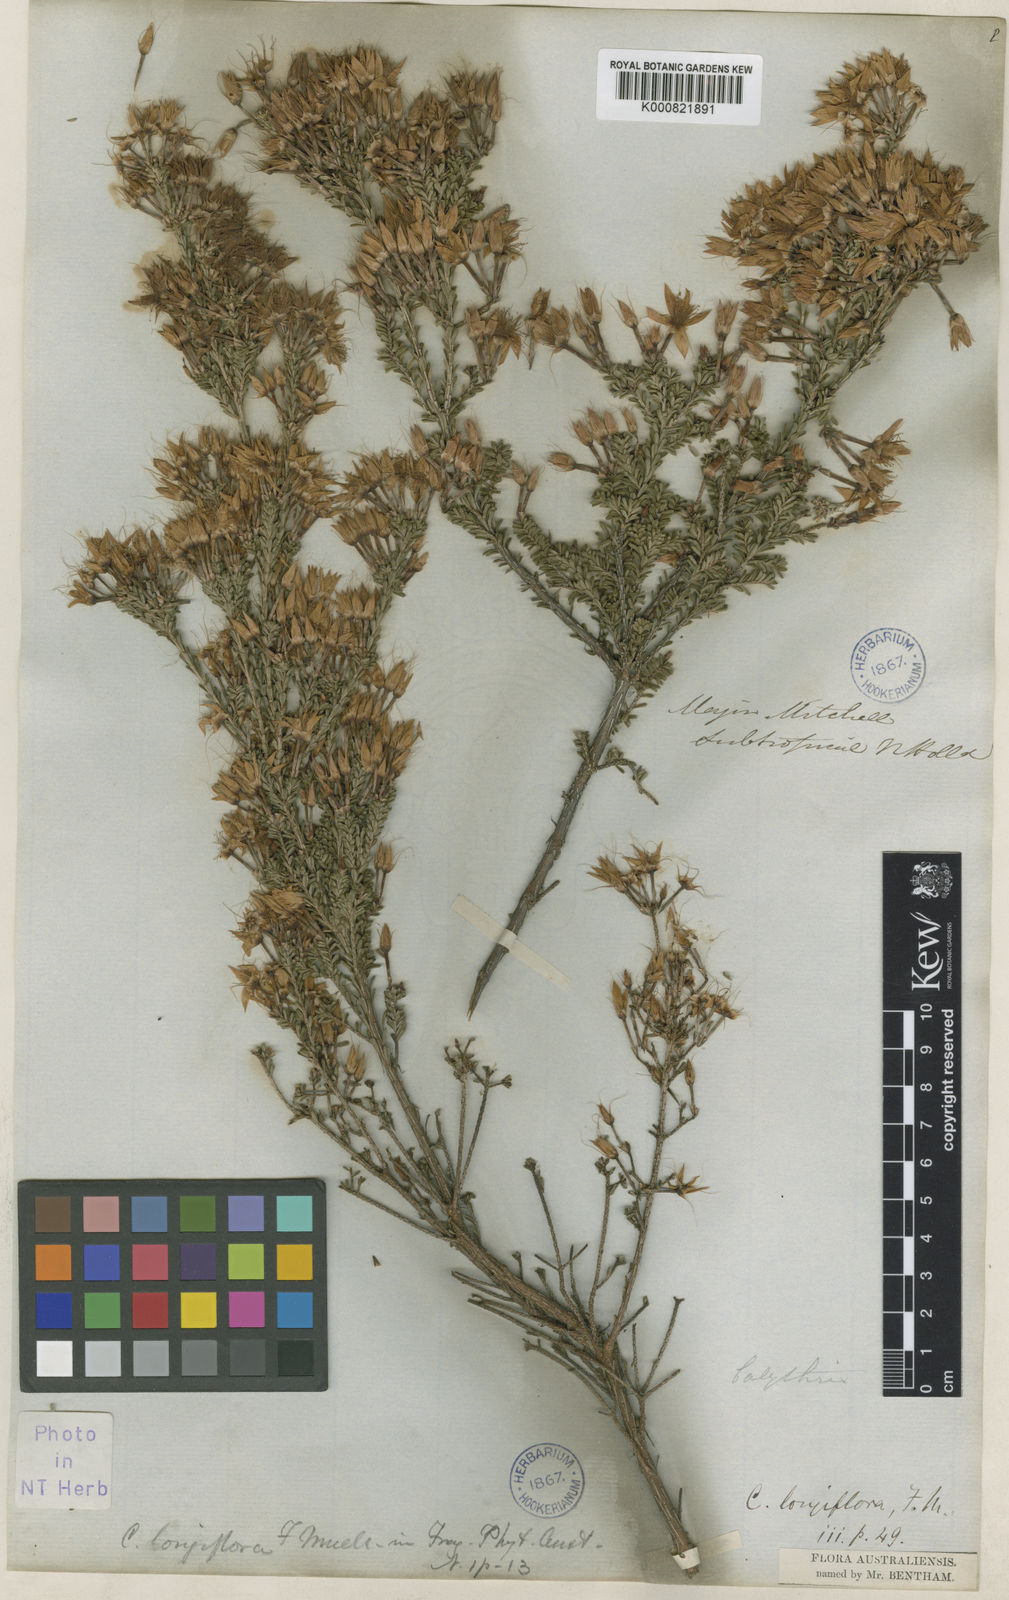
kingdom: Plantae
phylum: Tracheophyta
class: Magnoliopsida
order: Myrtales
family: Myrtaceae
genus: Calytrix
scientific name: Calytrix longiflora
